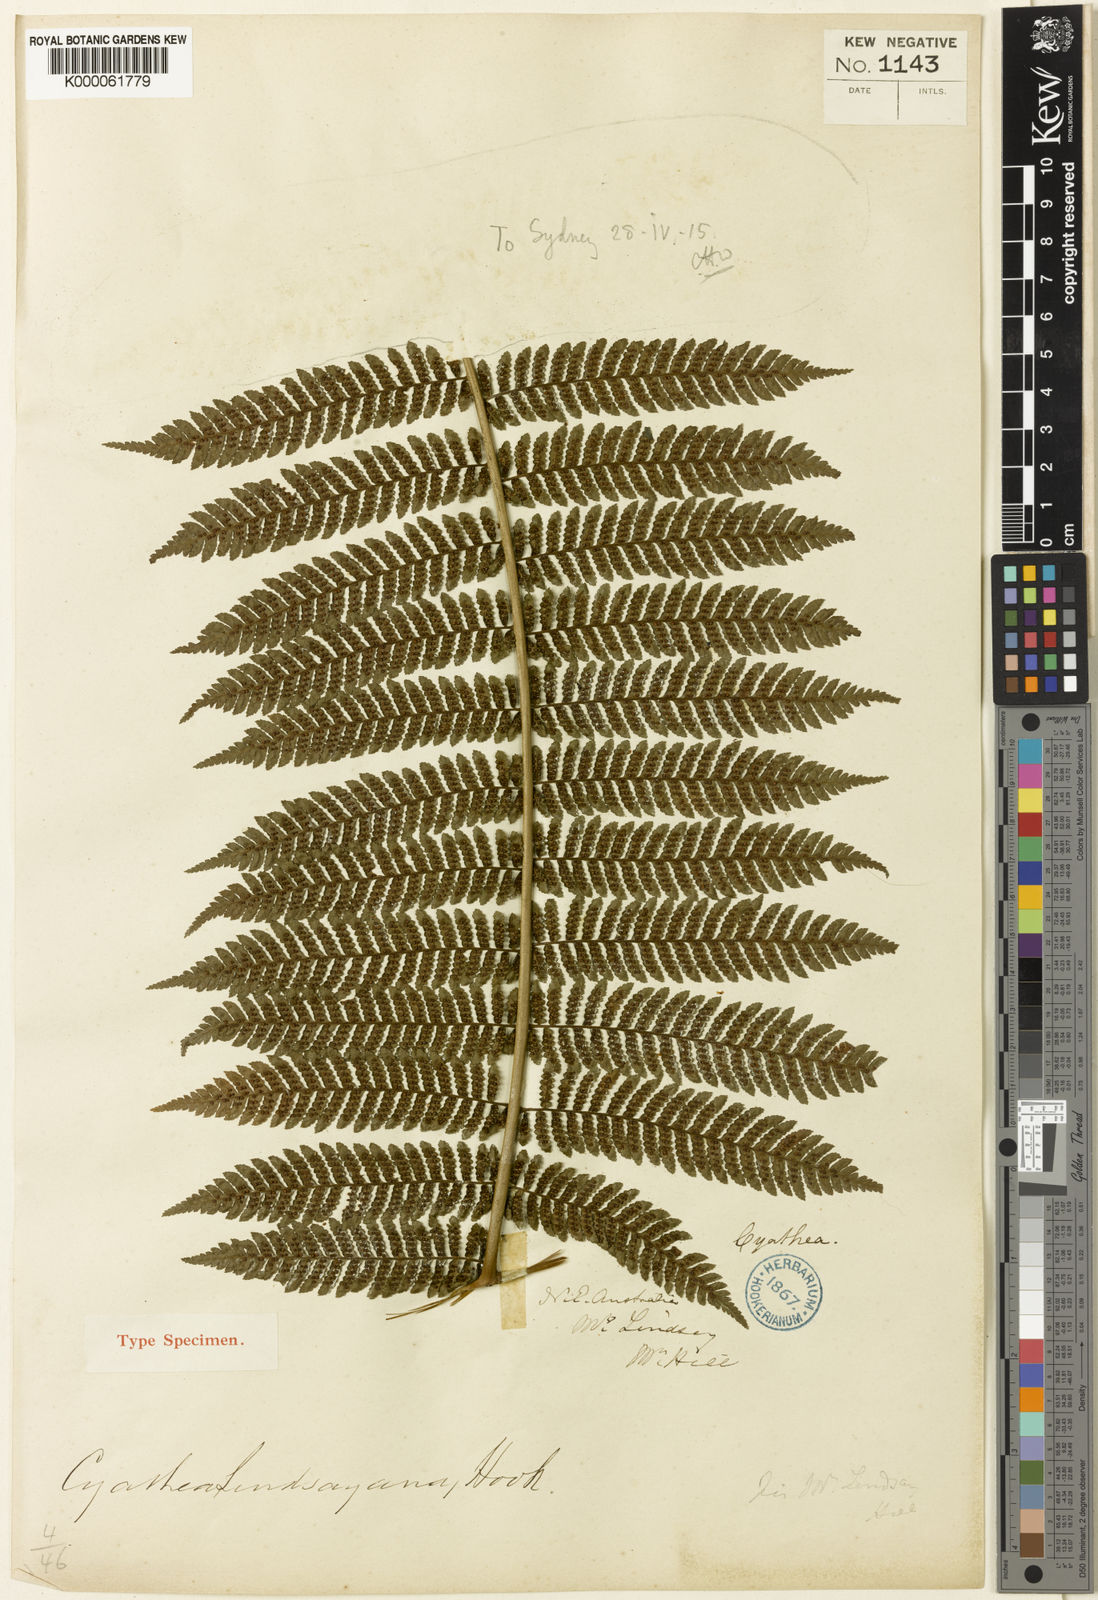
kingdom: Plantae
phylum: Tracheophyta
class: Polypodiopsida
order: Cyatheales
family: Cyatheaceae
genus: Alsophila
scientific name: Alsophila grevilleana
